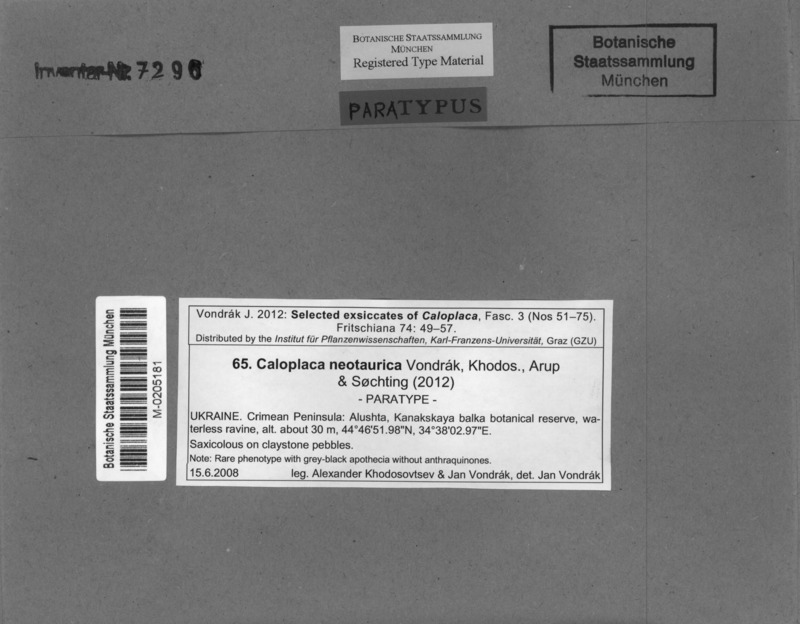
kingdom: Fungi
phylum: Ascomycota
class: Lecanoromycetes
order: Teloschistales
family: Teloschistaceae
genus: Kuettlingeria
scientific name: Kuettlingeria neotaurica
